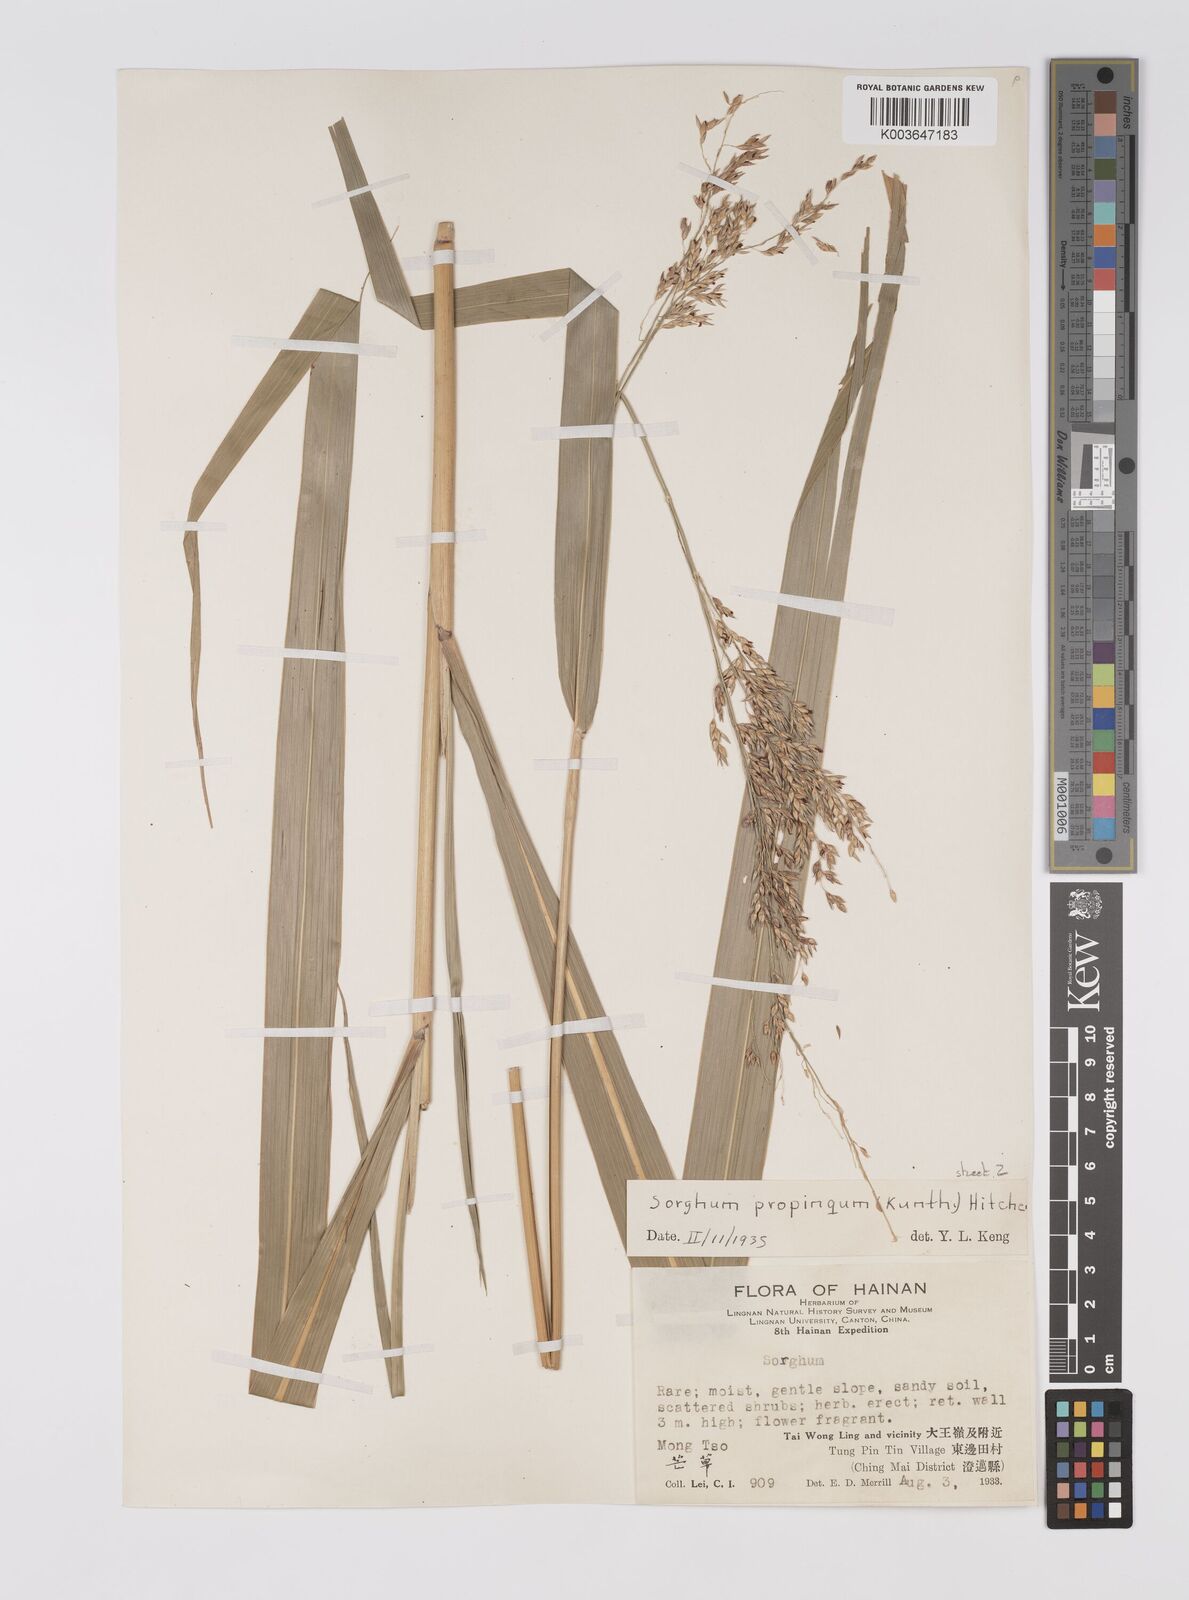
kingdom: Plantae
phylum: Tracheophyta
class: Liliopsida
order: Poales
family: Poaceae
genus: Sorghum
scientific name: Sorghum propinquum
